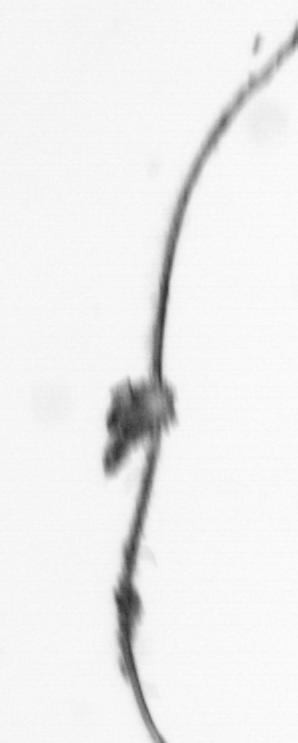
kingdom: Animalia
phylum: Arthropoda
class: Copepoda
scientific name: Copepoda
